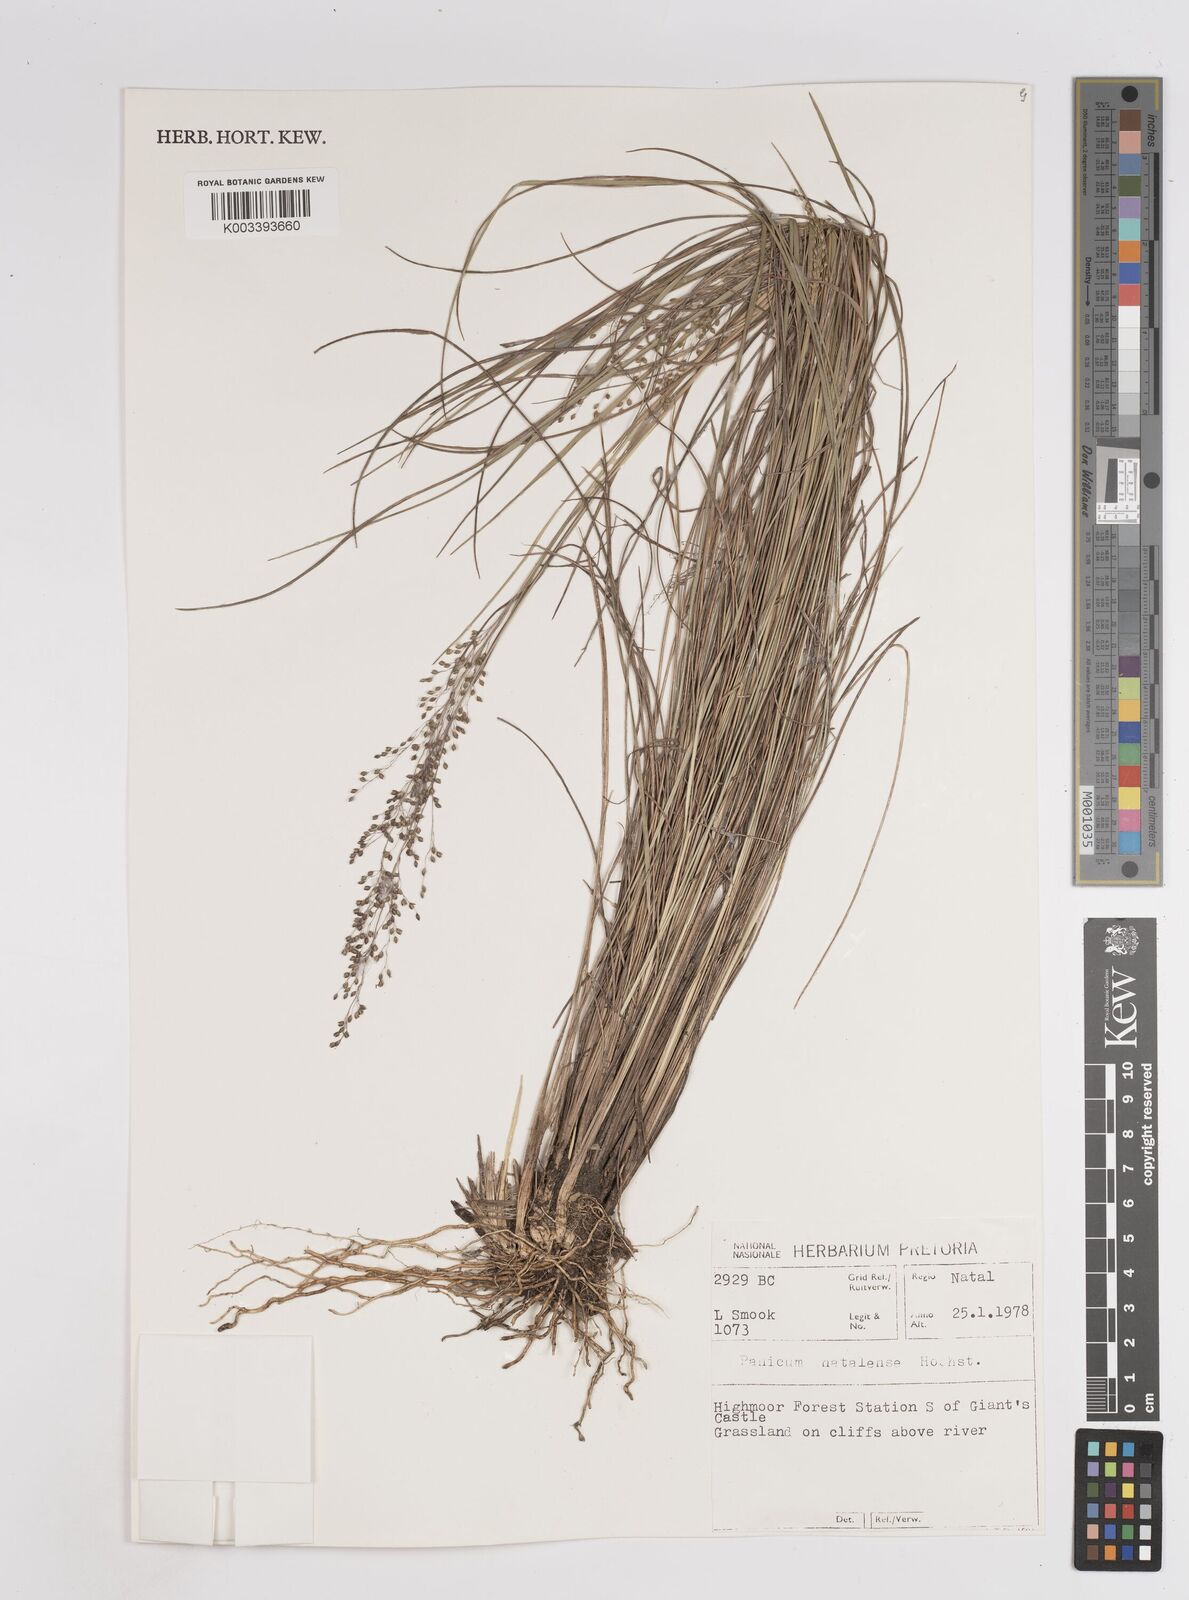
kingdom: Plantae
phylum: Tracheophyta
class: Liliopsida
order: Poales
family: Poaceae
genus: Trichanthecium
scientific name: Trichanthecium natalense
